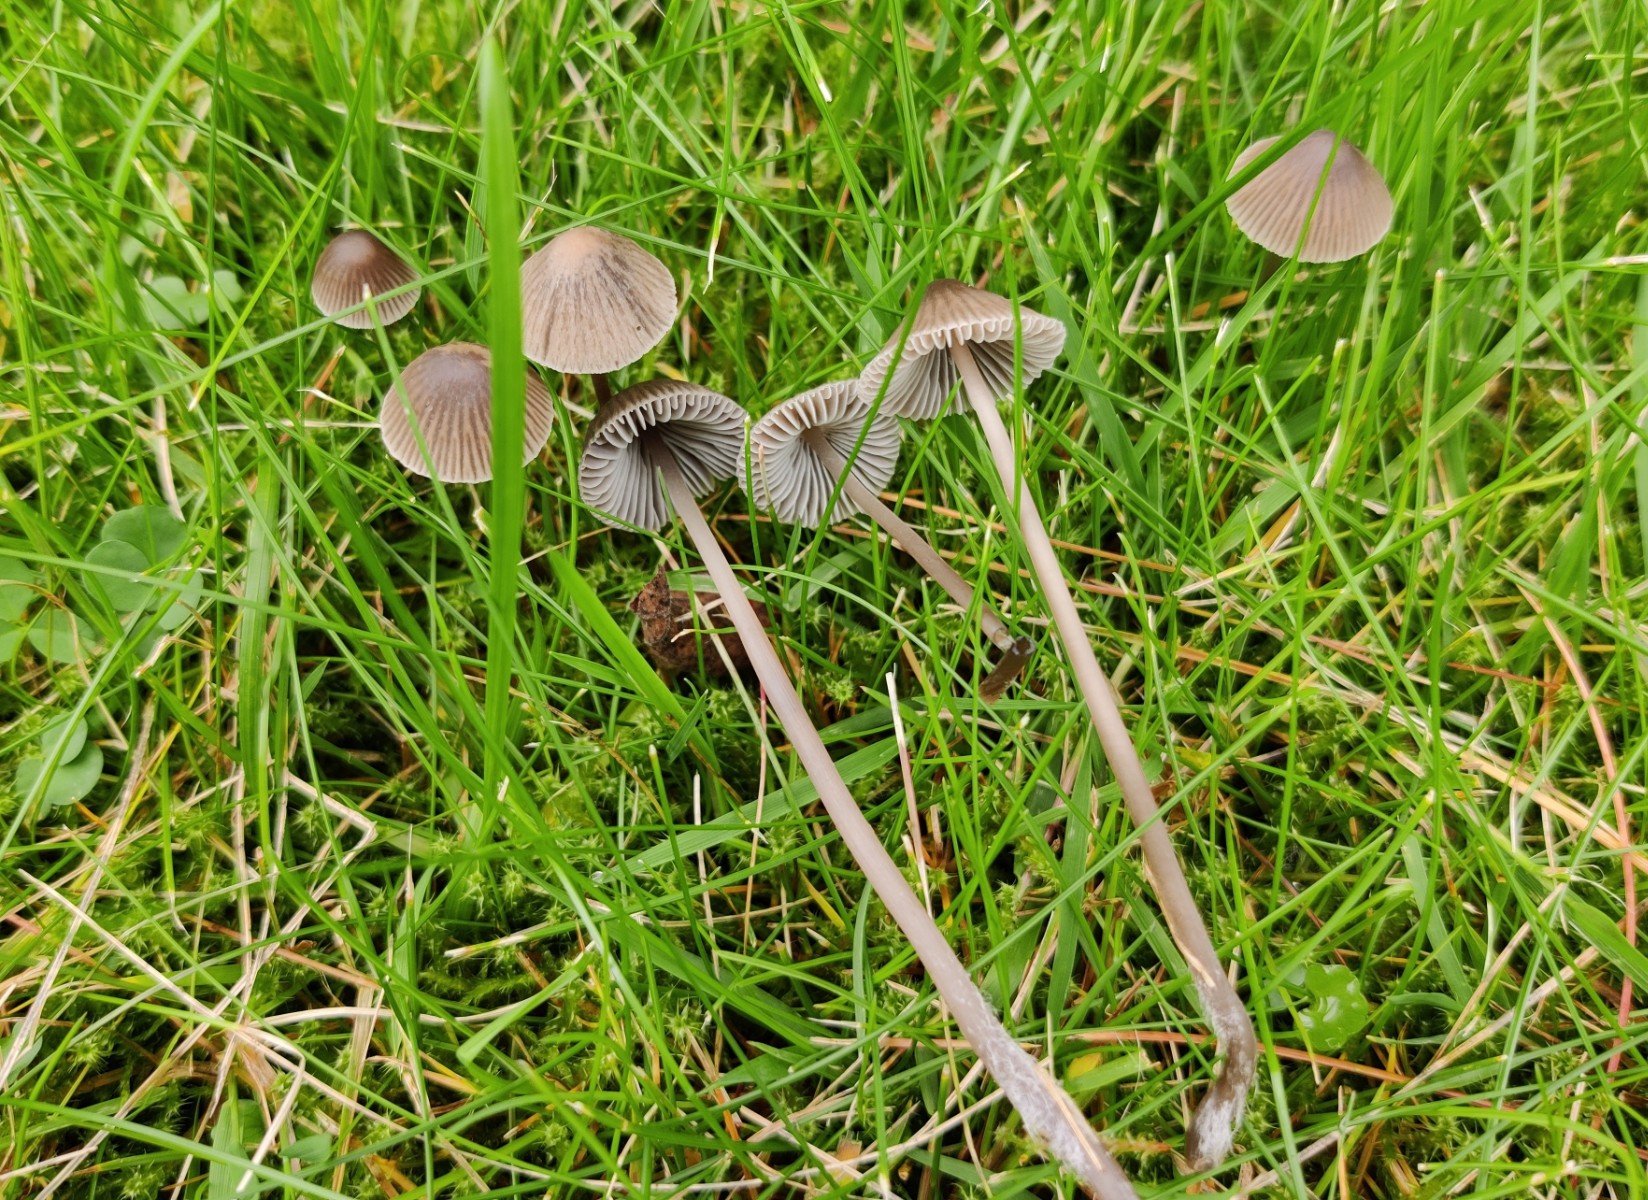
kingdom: Fungi
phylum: Basidiomycota
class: Agaricomycetes
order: Agaricales
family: Mycenaceae
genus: Mycena
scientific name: Mycena
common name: huesvamp
